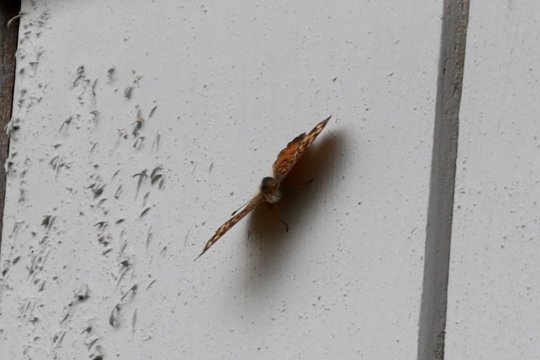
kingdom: Animalia
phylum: Arthropoda
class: Insecta
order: Lepidoptera
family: Nymphalidae
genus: Phyciodes
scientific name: Phyciodes
